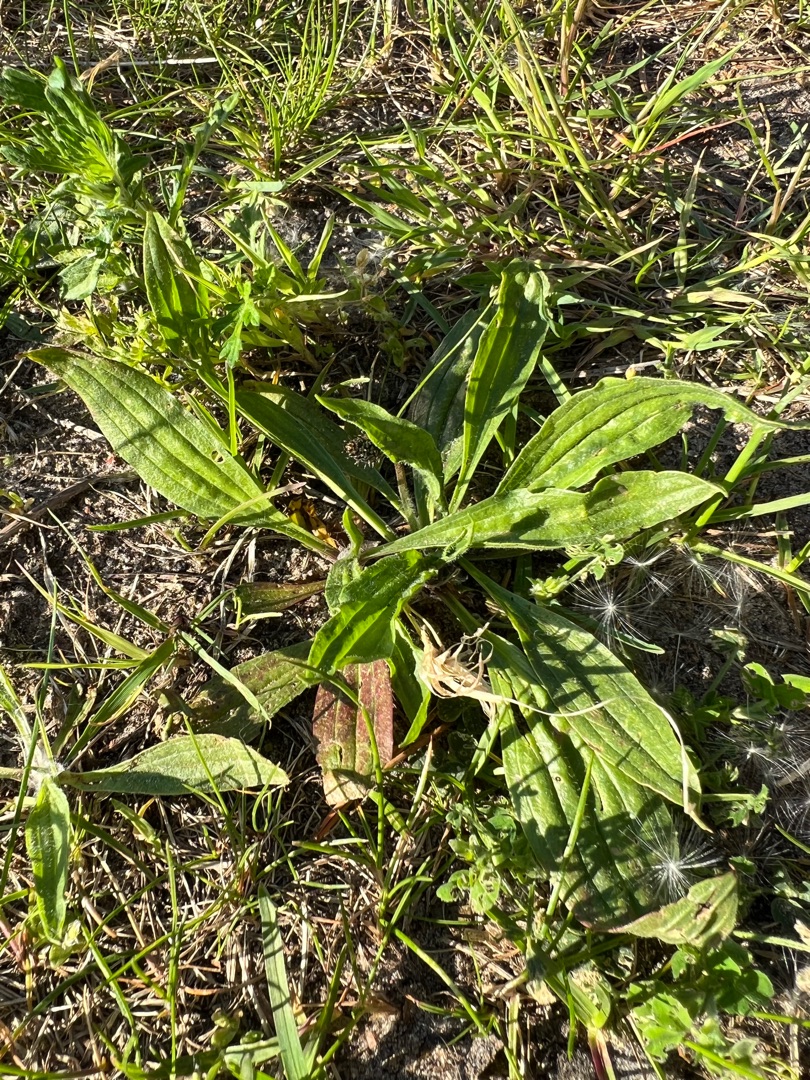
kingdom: Plantae
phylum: Tracheophyta
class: Magnoliopsida
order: Lamiales
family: Plantaginaceae
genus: Plantago
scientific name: Plantago lanceolata
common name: Lancet-vejbred
